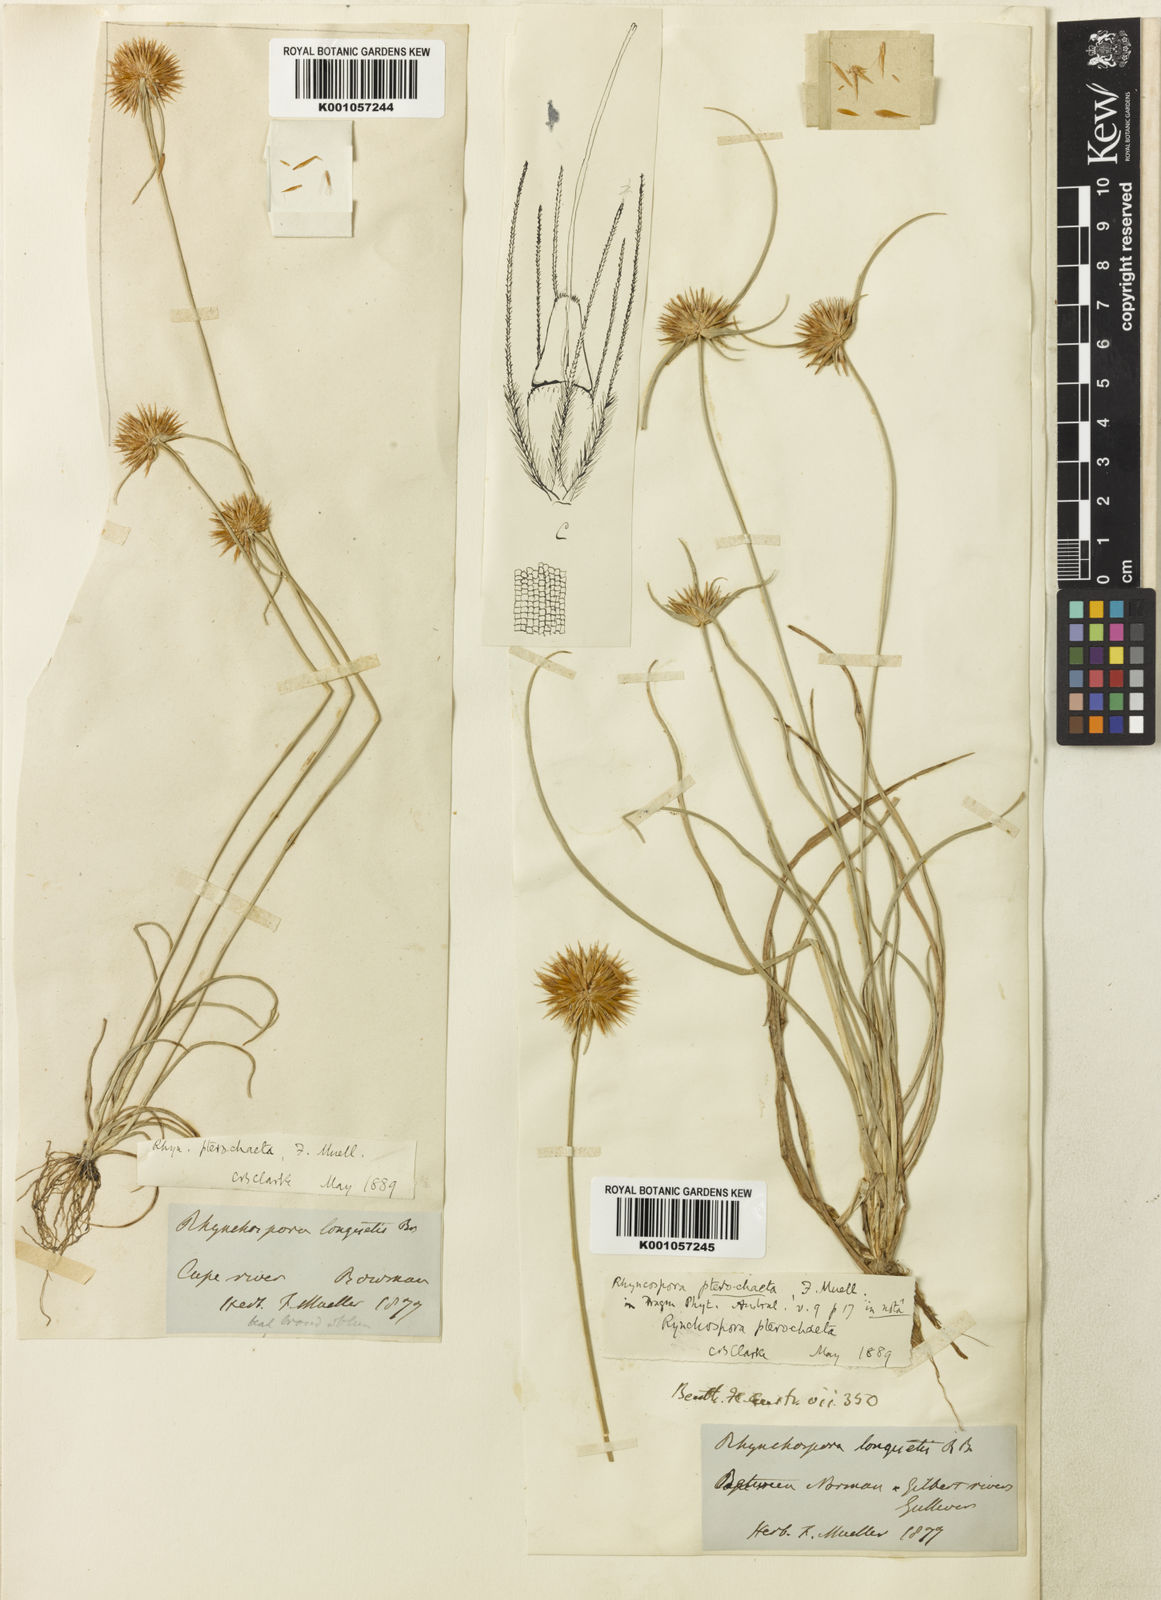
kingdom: Plantae
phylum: Tracheophyta
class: Liliopsida
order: Poales
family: Cyperaceae
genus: Rhynchospora
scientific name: Rhynchospora pterochaeta
